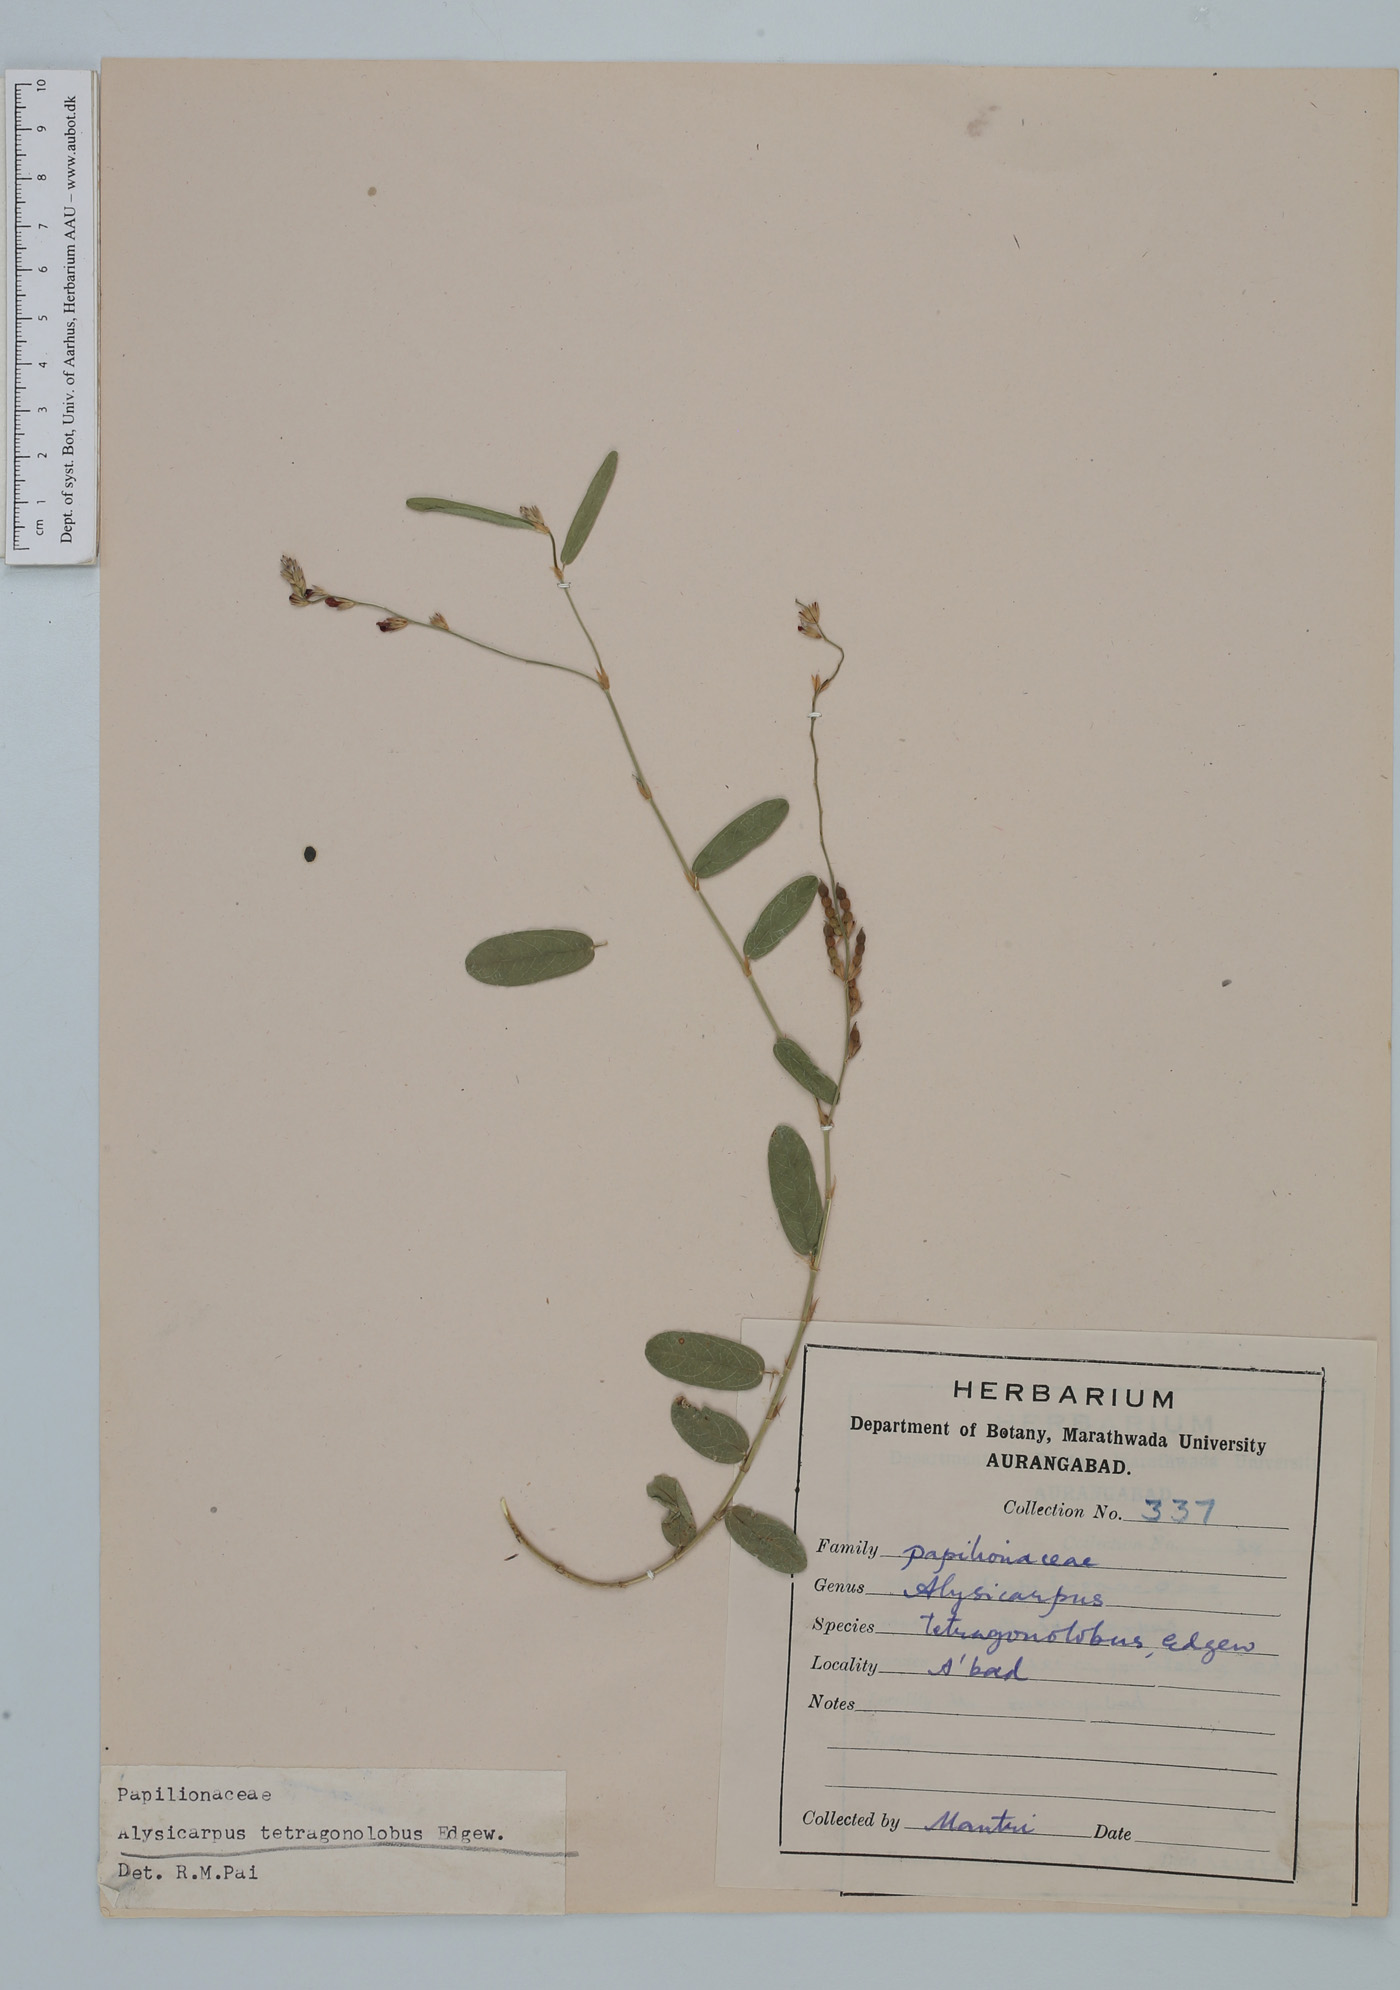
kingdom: Plantae
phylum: Tracheophyta
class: Magnoliopsida
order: Fabales
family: Fabaceae
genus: Alysicarpus
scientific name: Alysicarpus tetragonolobus
